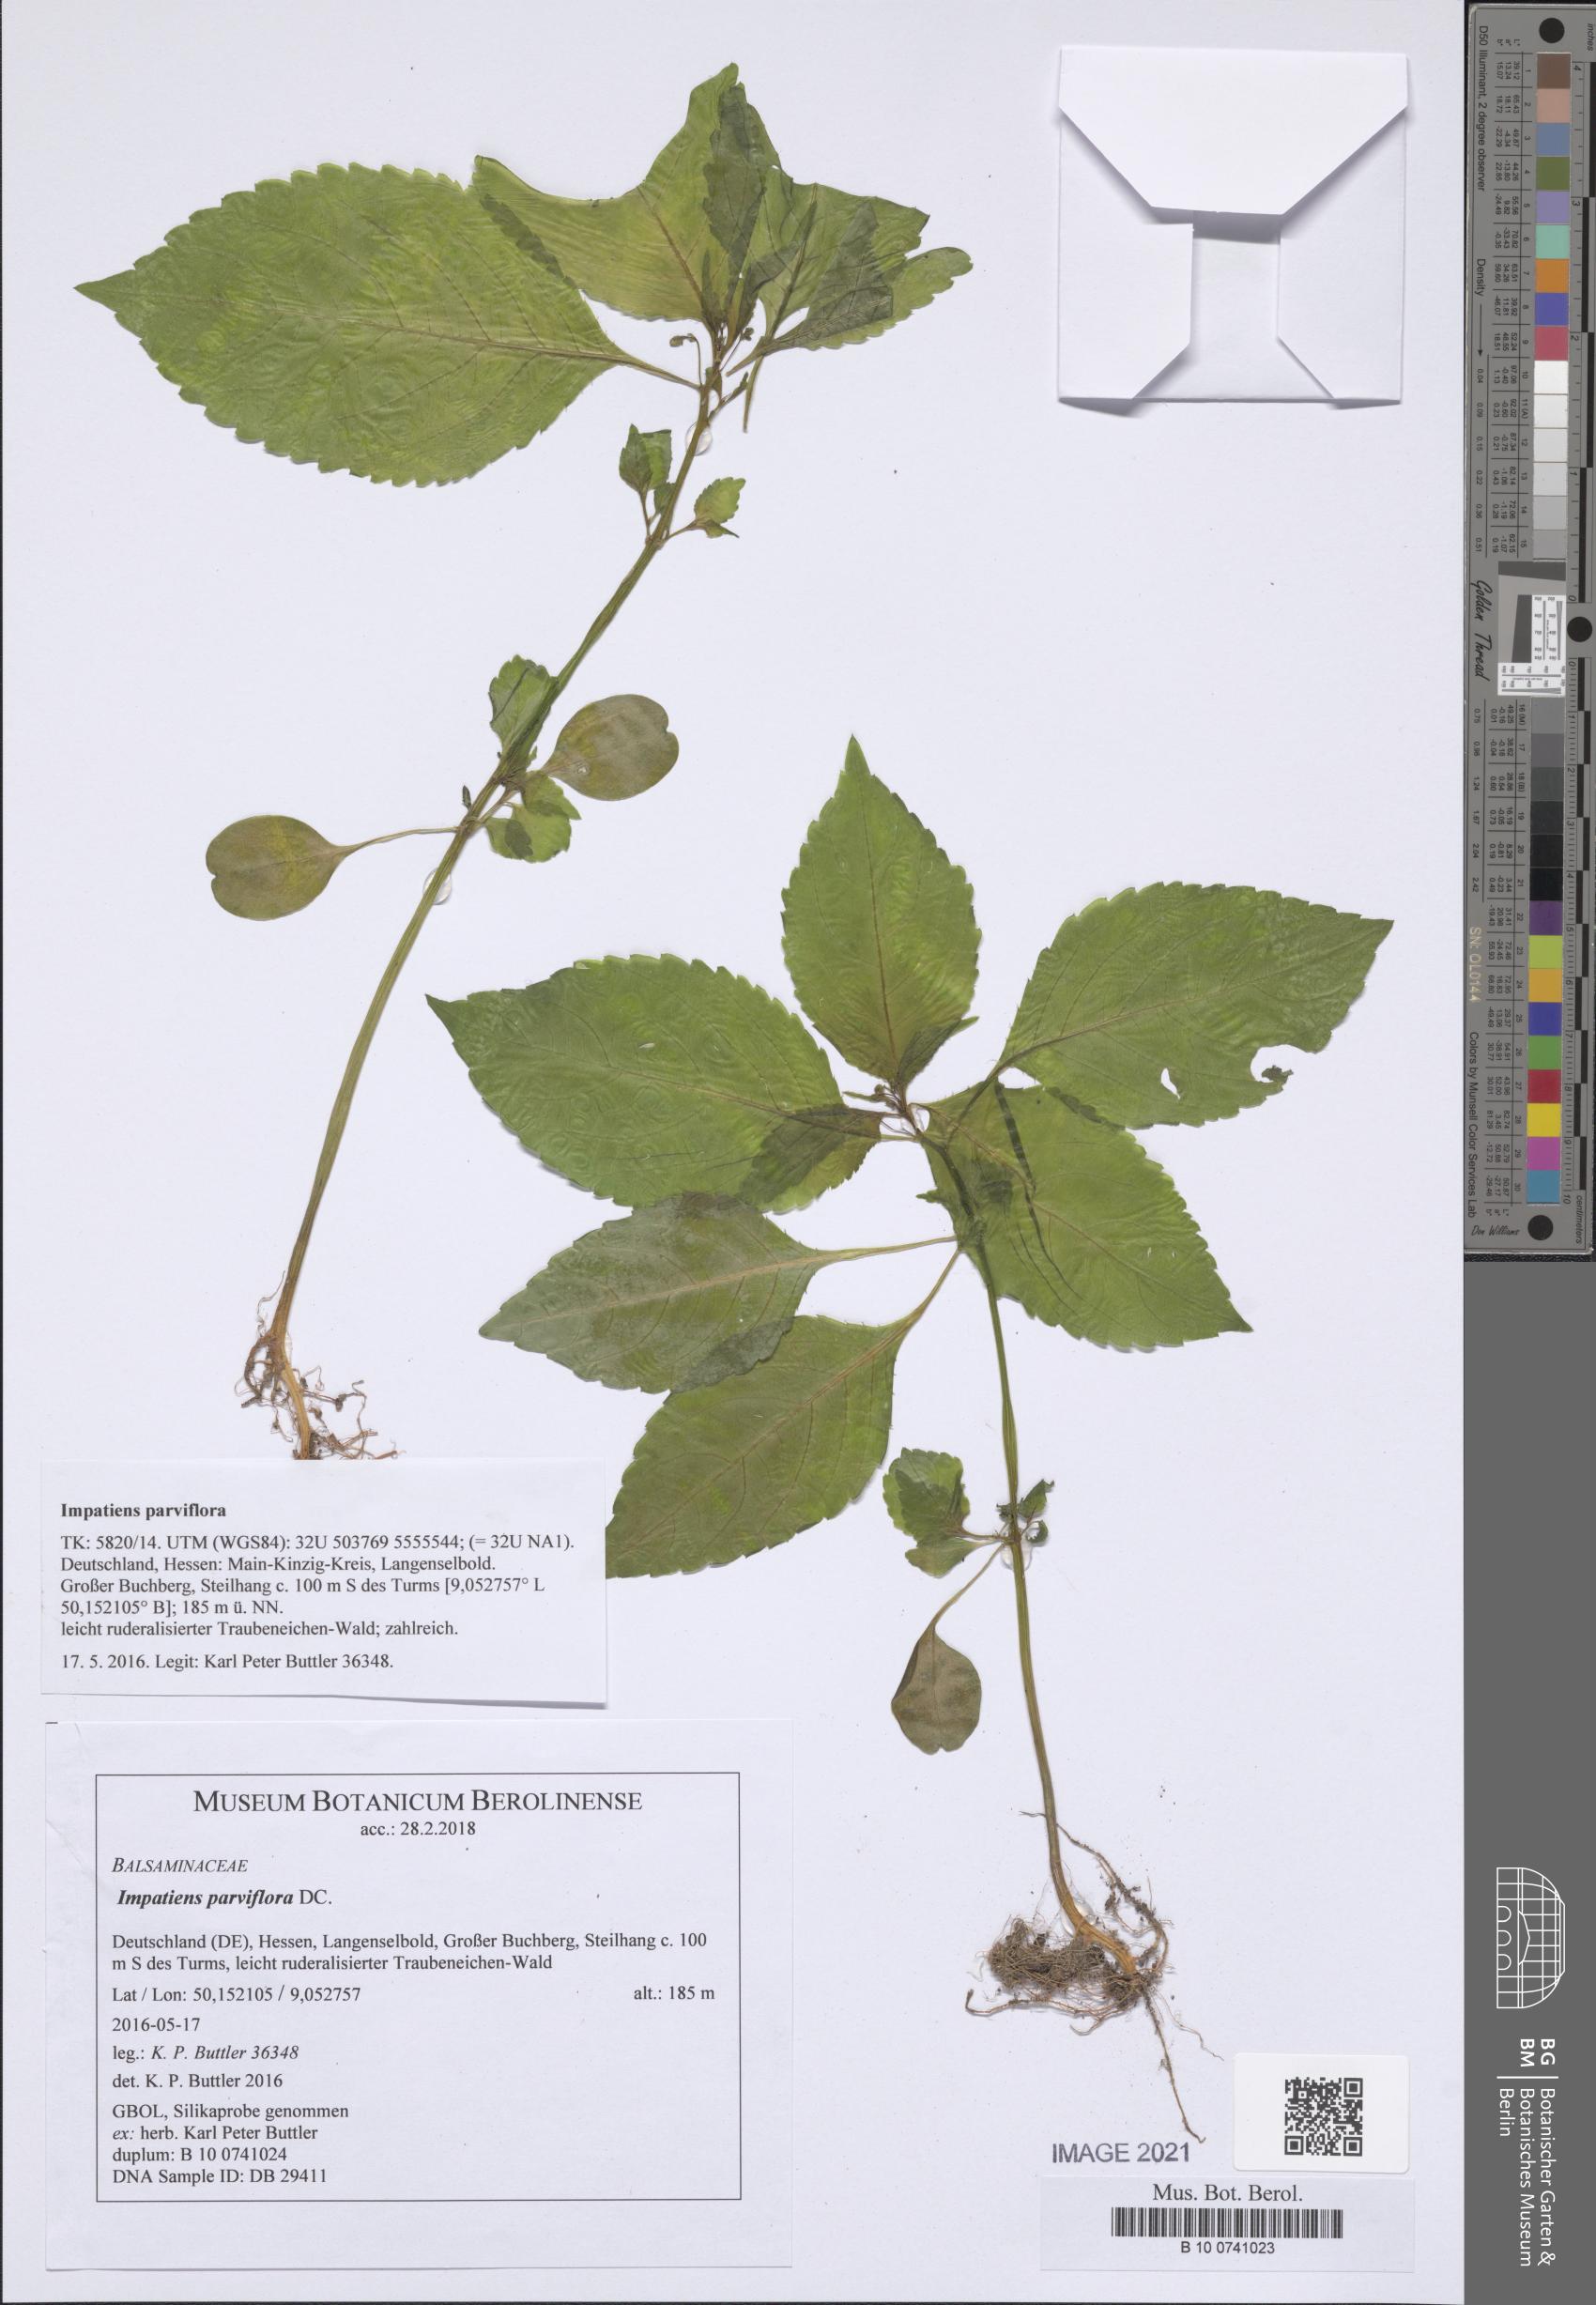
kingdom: Plantae
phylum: Tracheophyta
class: Magnoliopsida
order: Ericales
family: Balsaminaceae
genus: Impatiens
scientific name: Impatiens parviflora
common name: Small balsam
